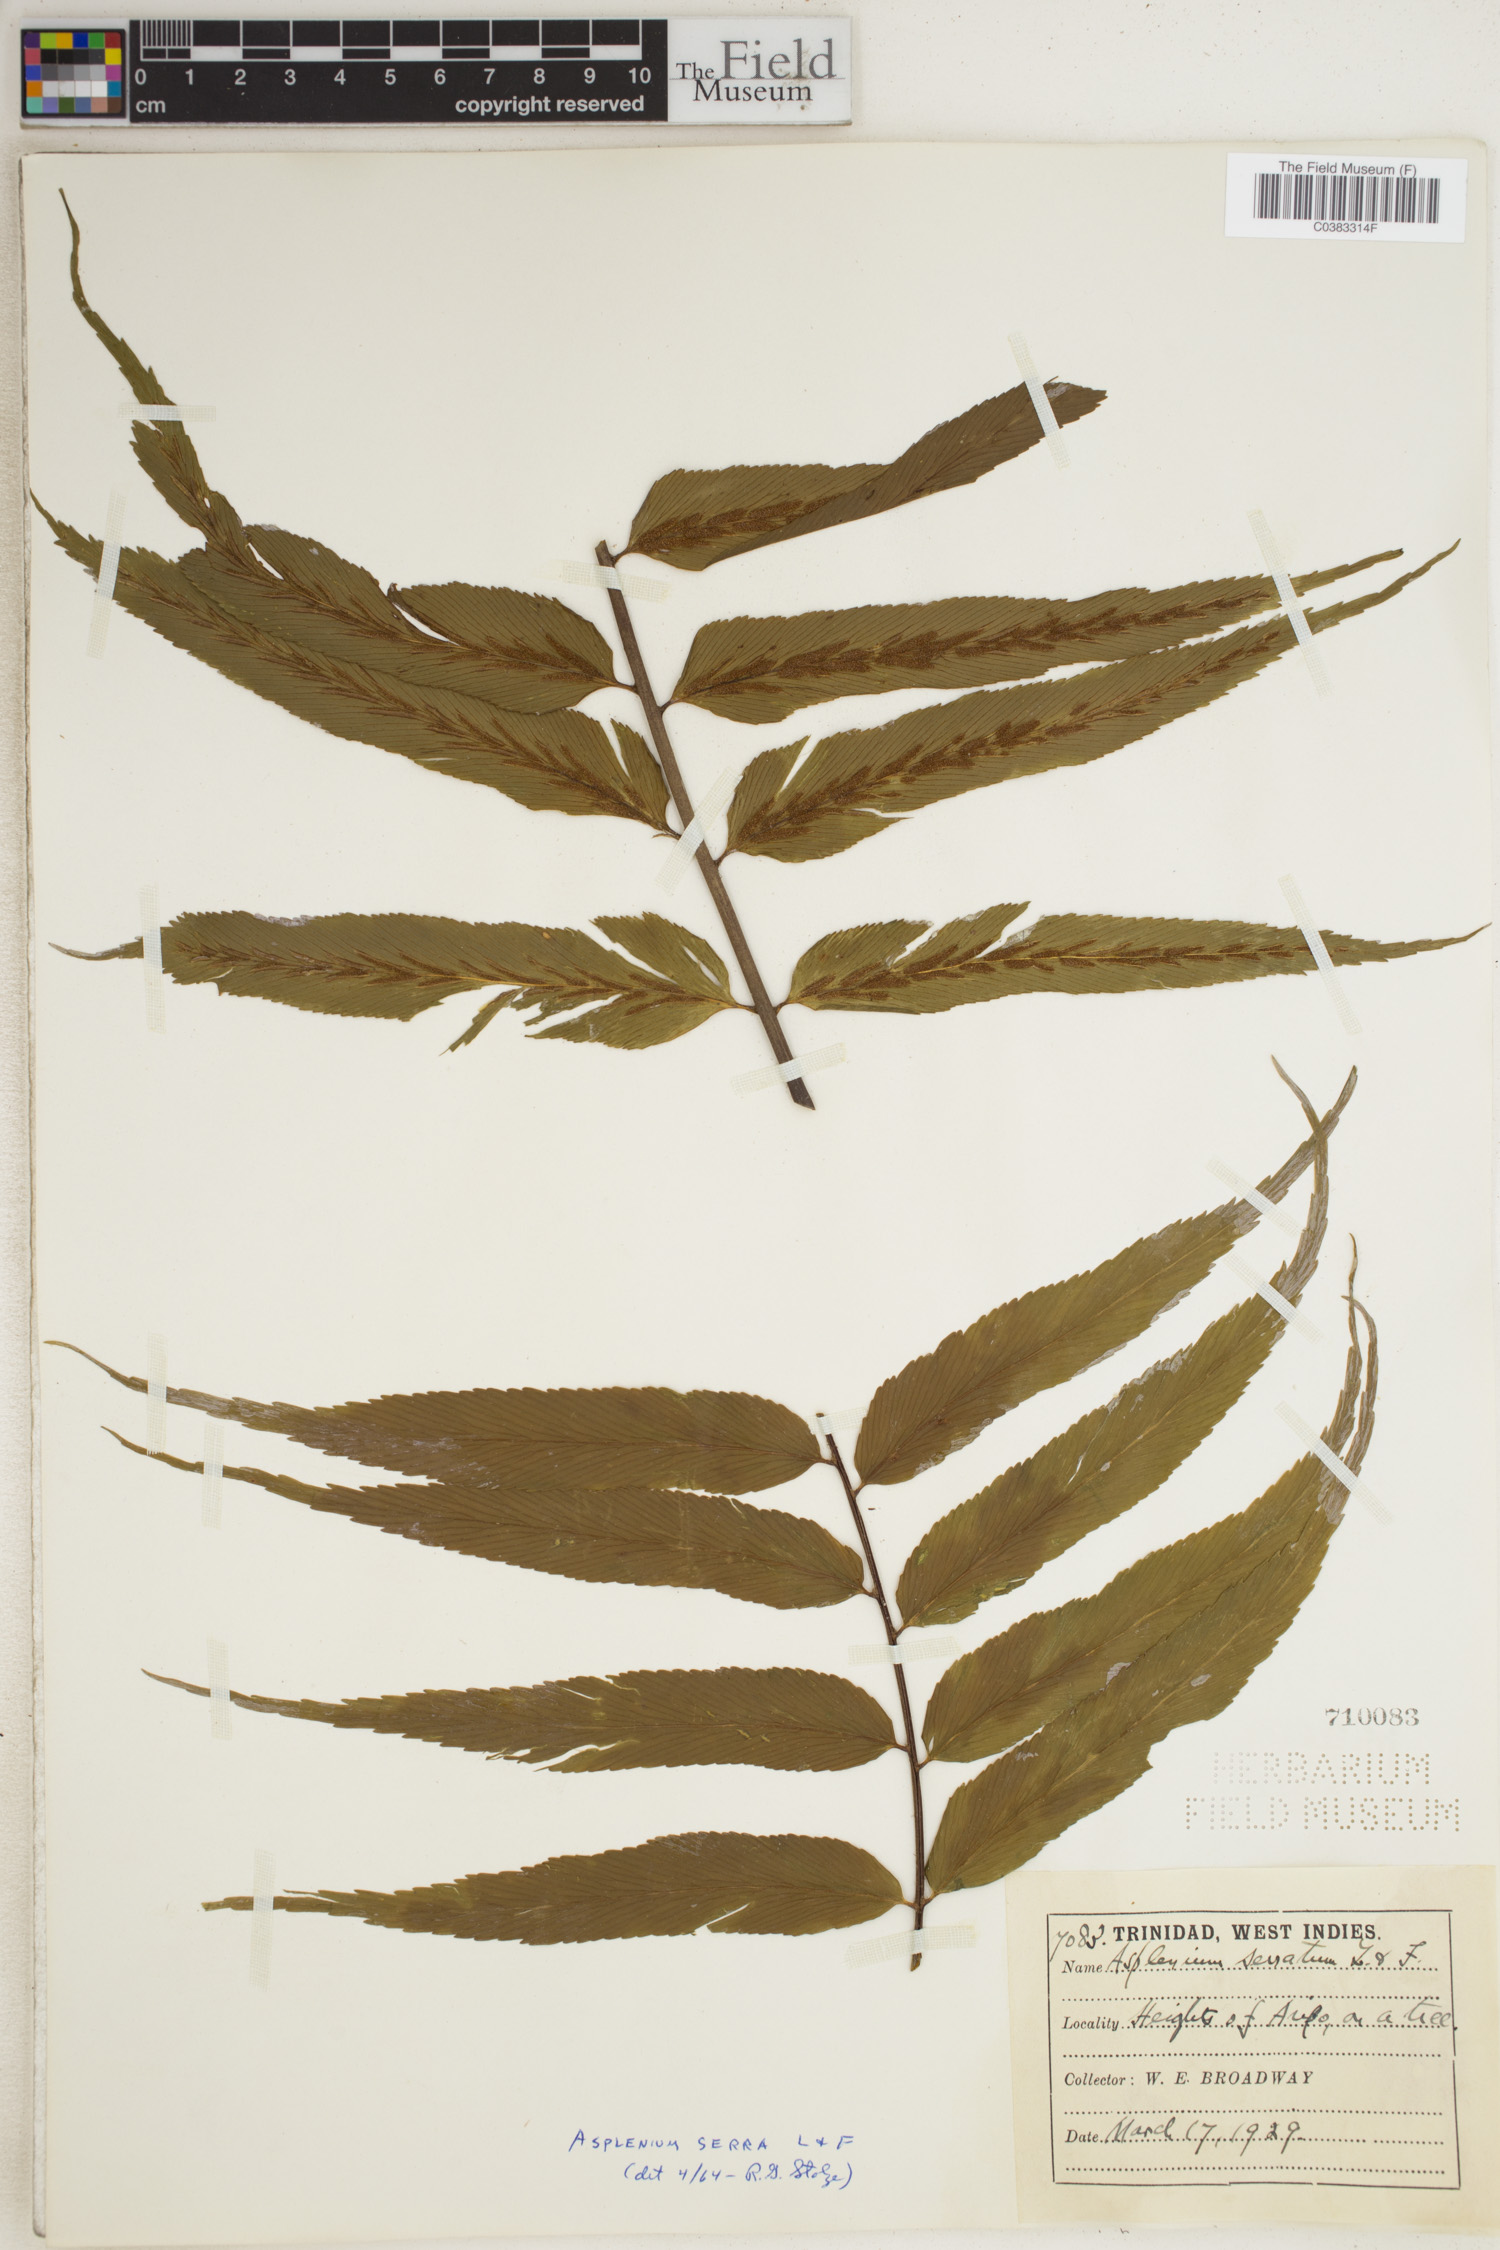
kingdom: Plantae
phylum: Tracheophyta
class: Polypodiopsida
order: Polypodiales
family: Aspleniaceae
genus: Asplenium
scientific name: Asplenium serra
